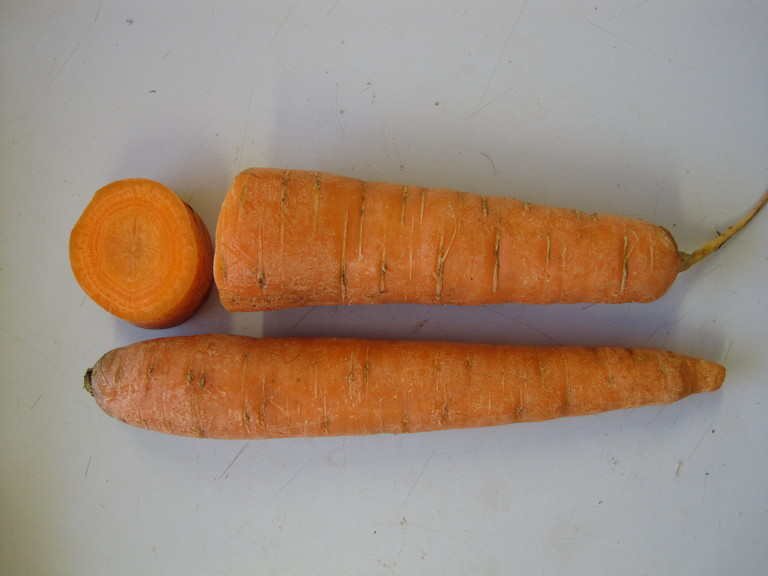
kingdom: Plantae
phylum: Tracheophyta
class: Magnoliopsida
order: Apiales
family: Apiaceae
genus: Daucus
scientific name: Daucus carota
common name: Wild carrot
